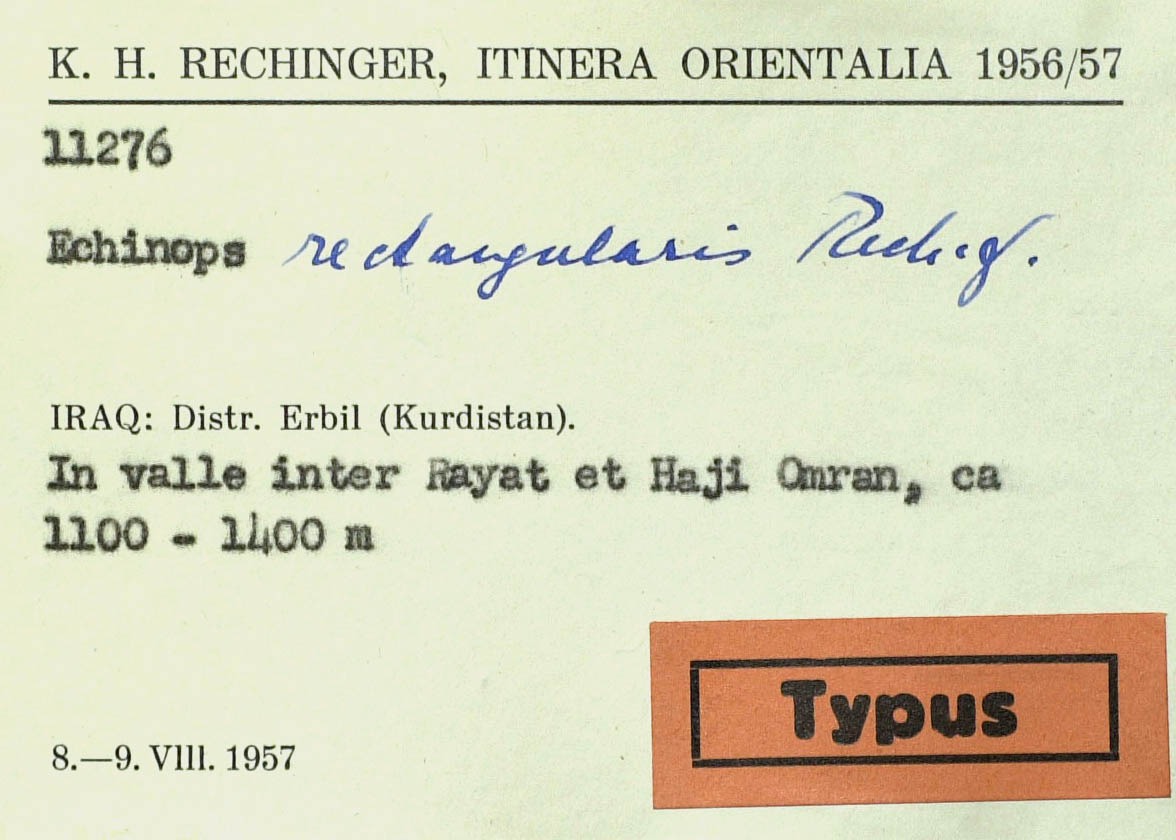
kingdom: Plantae
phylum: Tracheophyta
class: Magnoliopsida
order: Asterales
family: Asteraceae
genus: Echinops
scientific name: Echinops rectangularis
